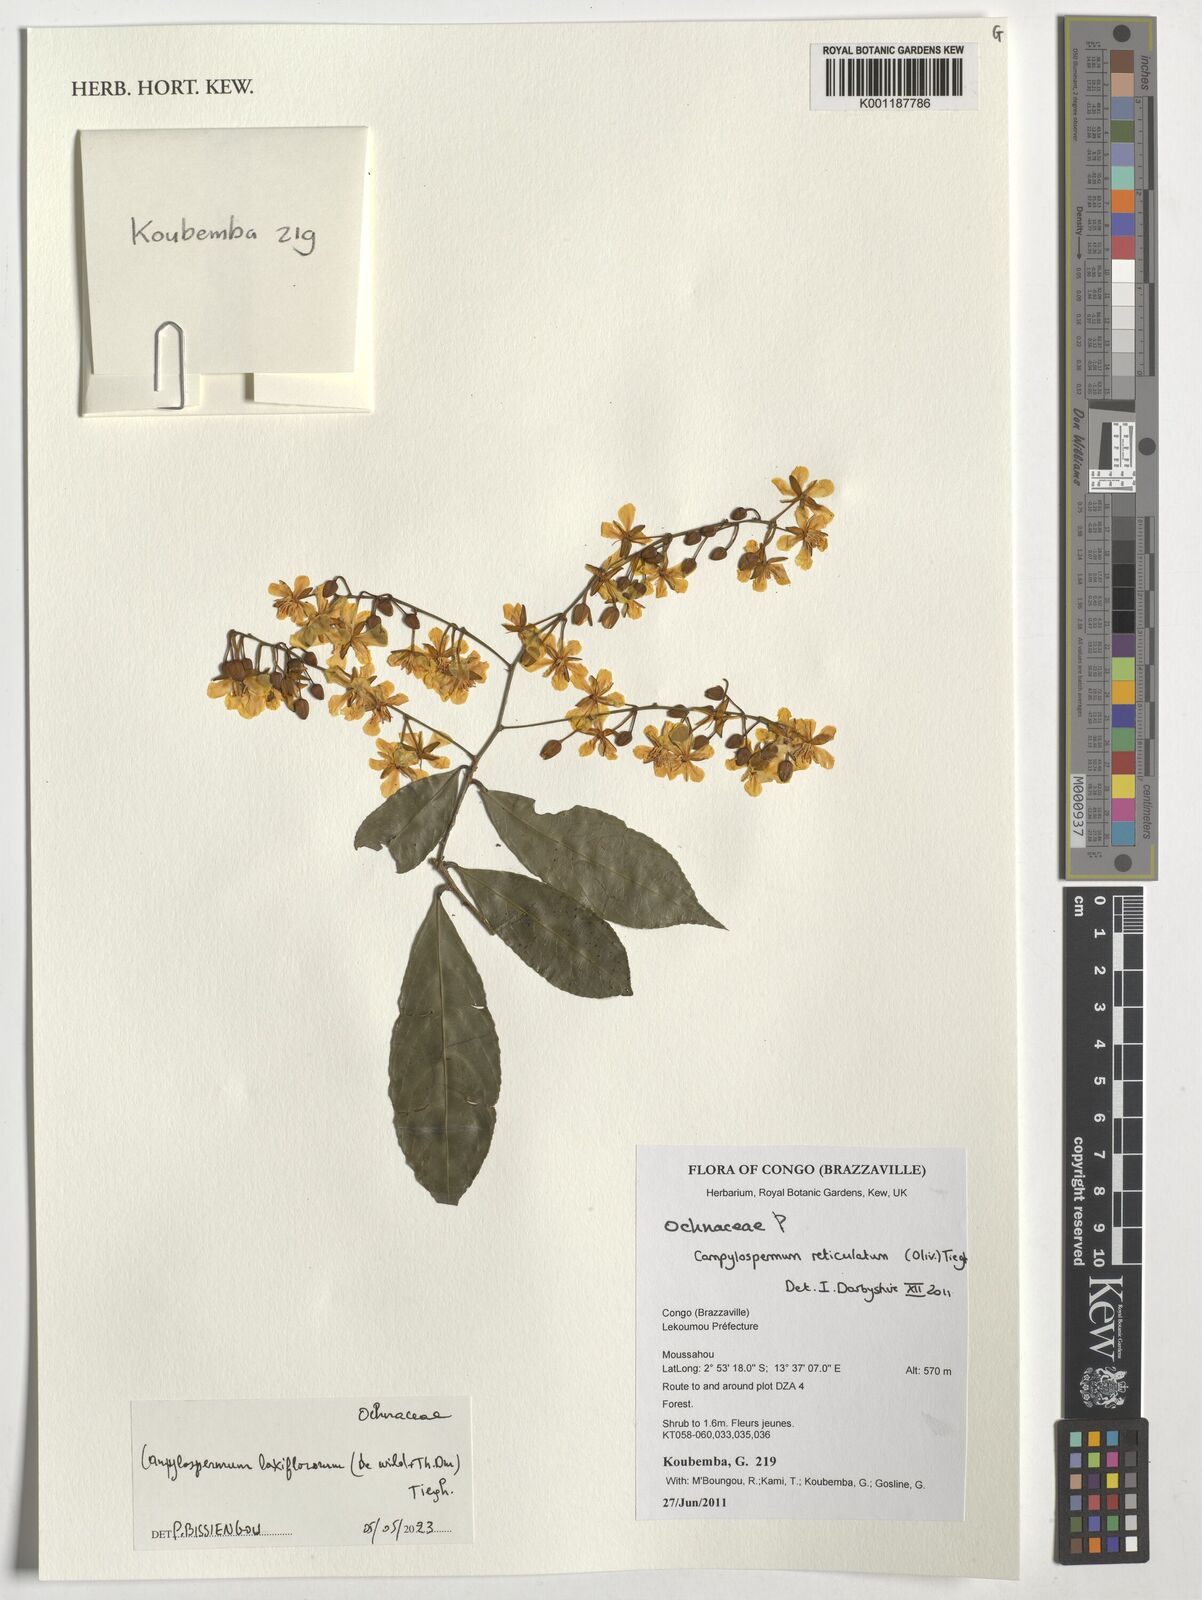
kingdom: Plantae
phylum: Tracheophyta
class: Magnoliopsida
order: Malpighiales
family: Ochnaceae
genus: Campylospermum
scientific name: Campylospermum laxiflorum
